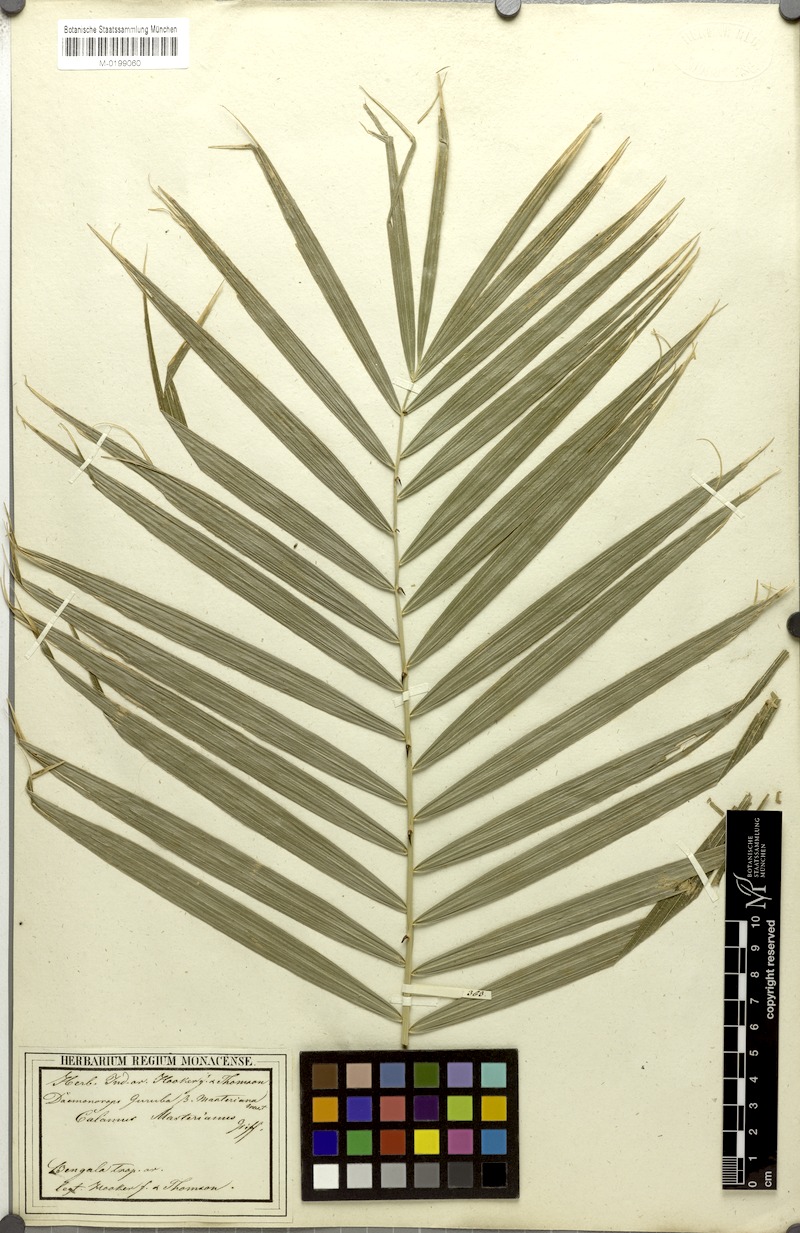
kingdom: Plantae
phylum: Tracheophyta
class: Liliopsida
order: Arecales
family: Arecaceae
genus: Calamus
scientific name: Calamus guruba
